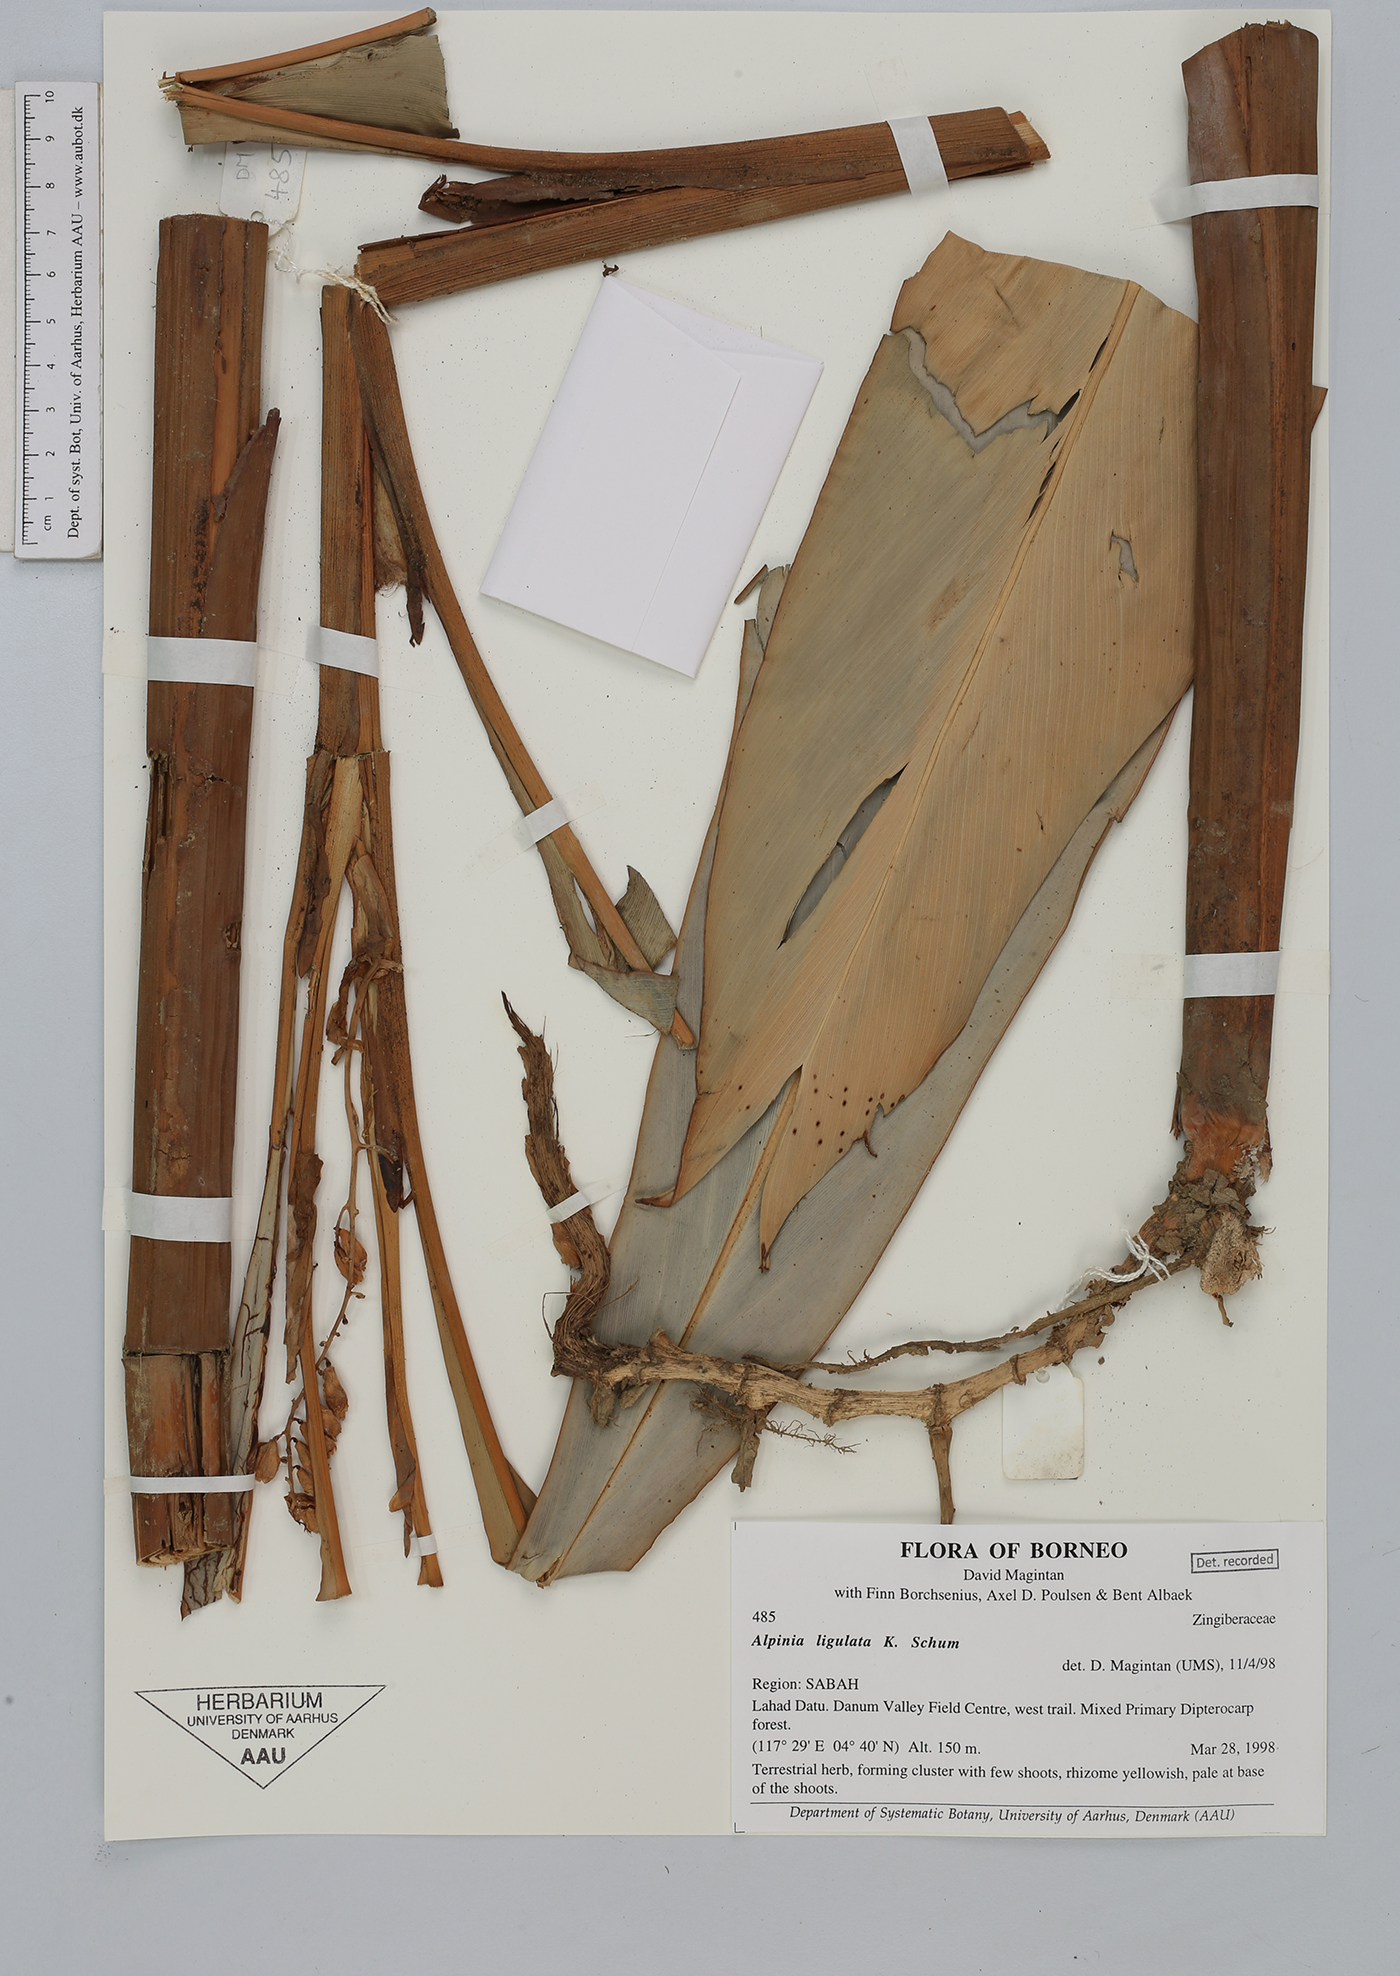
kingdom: Plantae
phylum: Tracheophyta
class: Liliopsida
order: Zingiberales
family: Zingiberaceae
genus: Alpinia
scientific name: Alpinia ligulata
